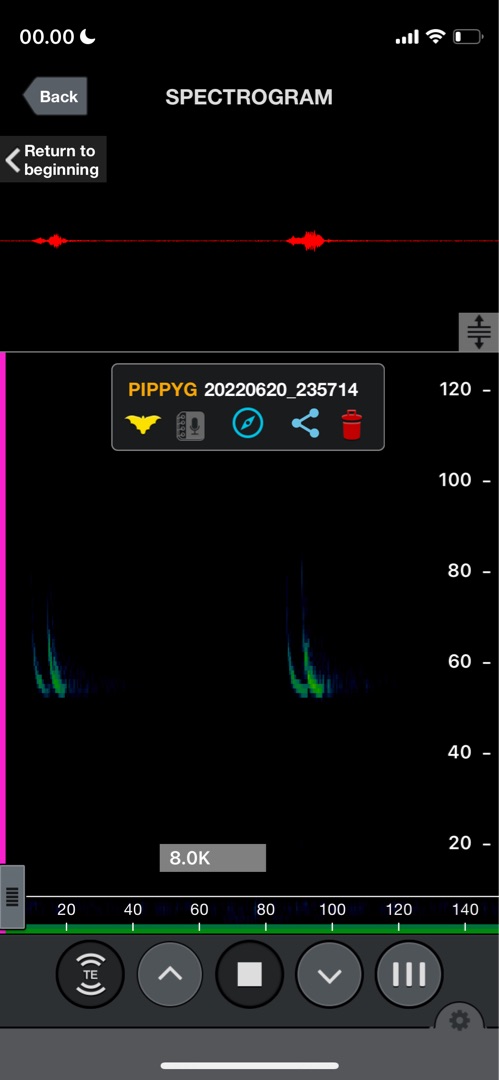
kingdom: Animalia
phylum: Chordata
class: Mammalia
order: Chiroptera
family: Vespertilionidae
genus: Pipistrellus
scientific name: Pipistrellus pygmaeus
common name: Dværgflagermus
